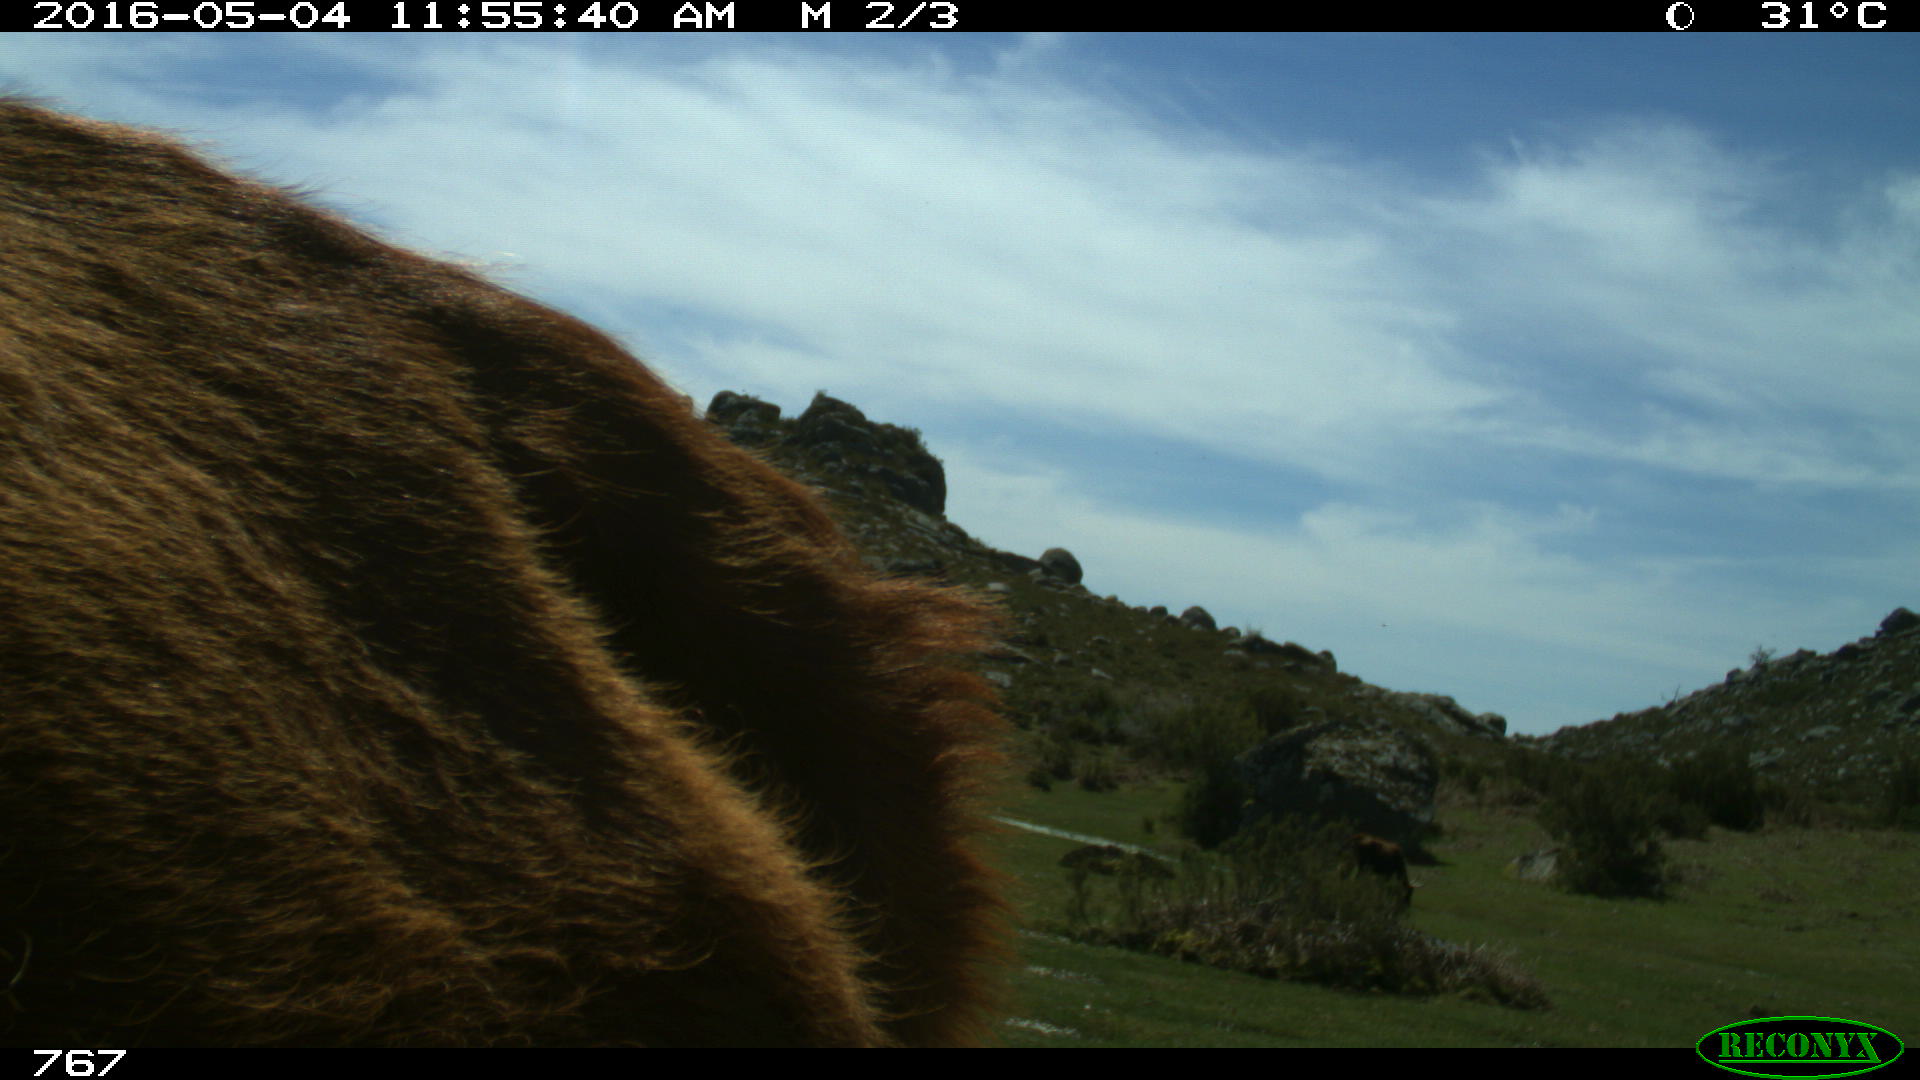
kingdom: Animalia
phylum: Chordata
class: Mammalia
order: Artiodactyla
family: Bovidae
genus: Bos
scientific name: Bos taurus
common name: Domesticated cattle
